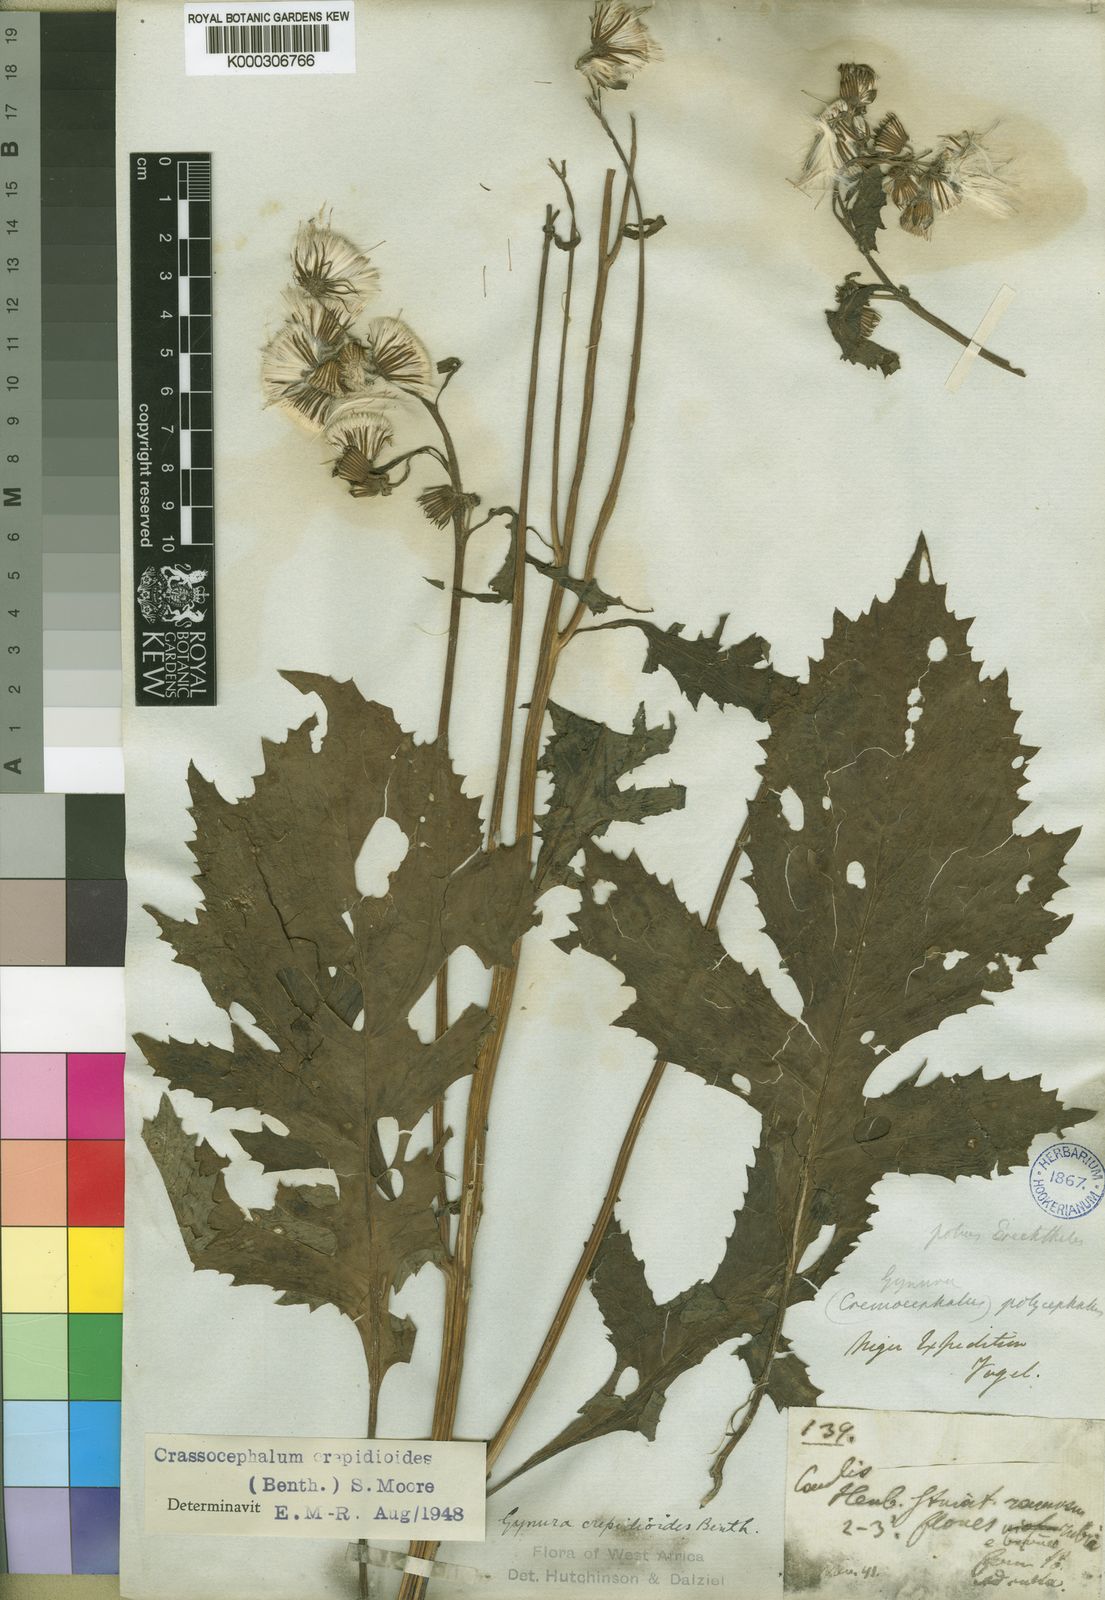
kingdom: Plantae
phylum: Tracheophyta
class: Magnoliopsida
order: Asterales
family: Asteraceae
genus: Crassocephalum
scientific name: Crassocephalum crepidioides
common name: Redflower ragleaf
